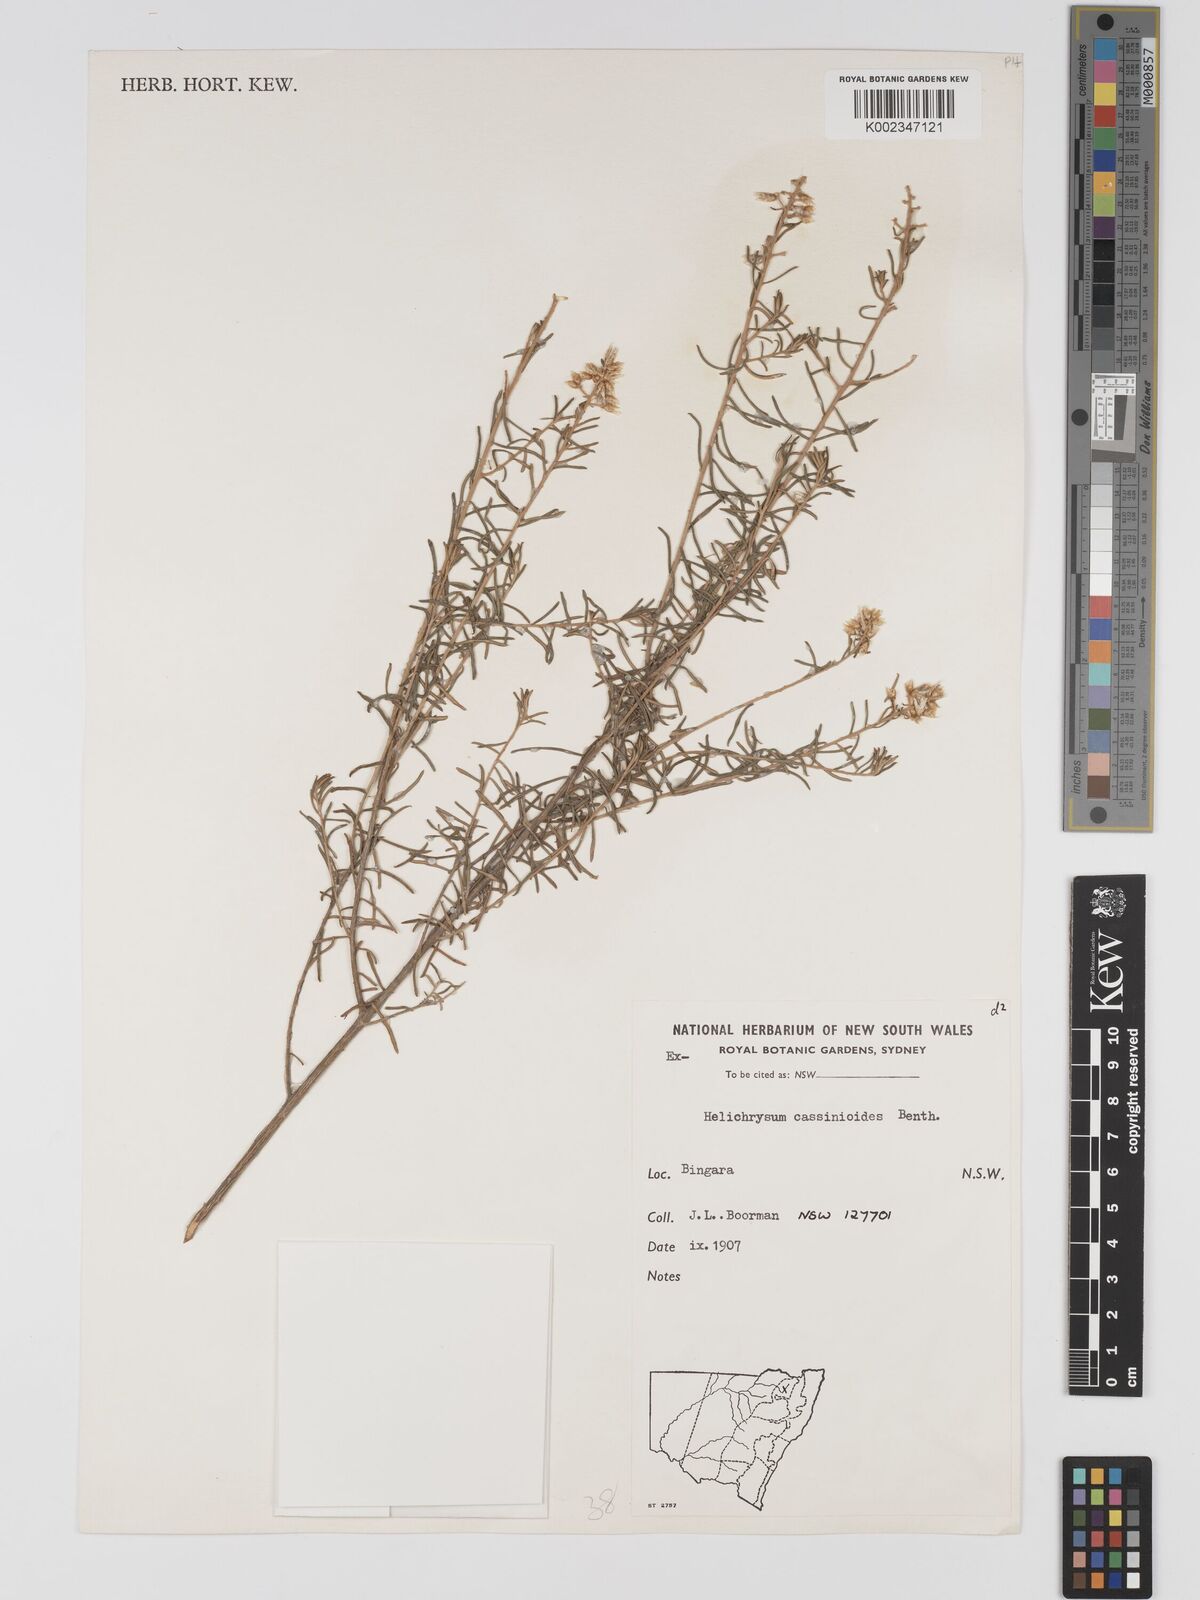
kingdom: Plantae
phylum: Tracheophyta
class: Magnoliopsida
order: Asterales
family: Asteraceae
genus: Ozothamnus
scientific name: Ozothamnus cassinioides
